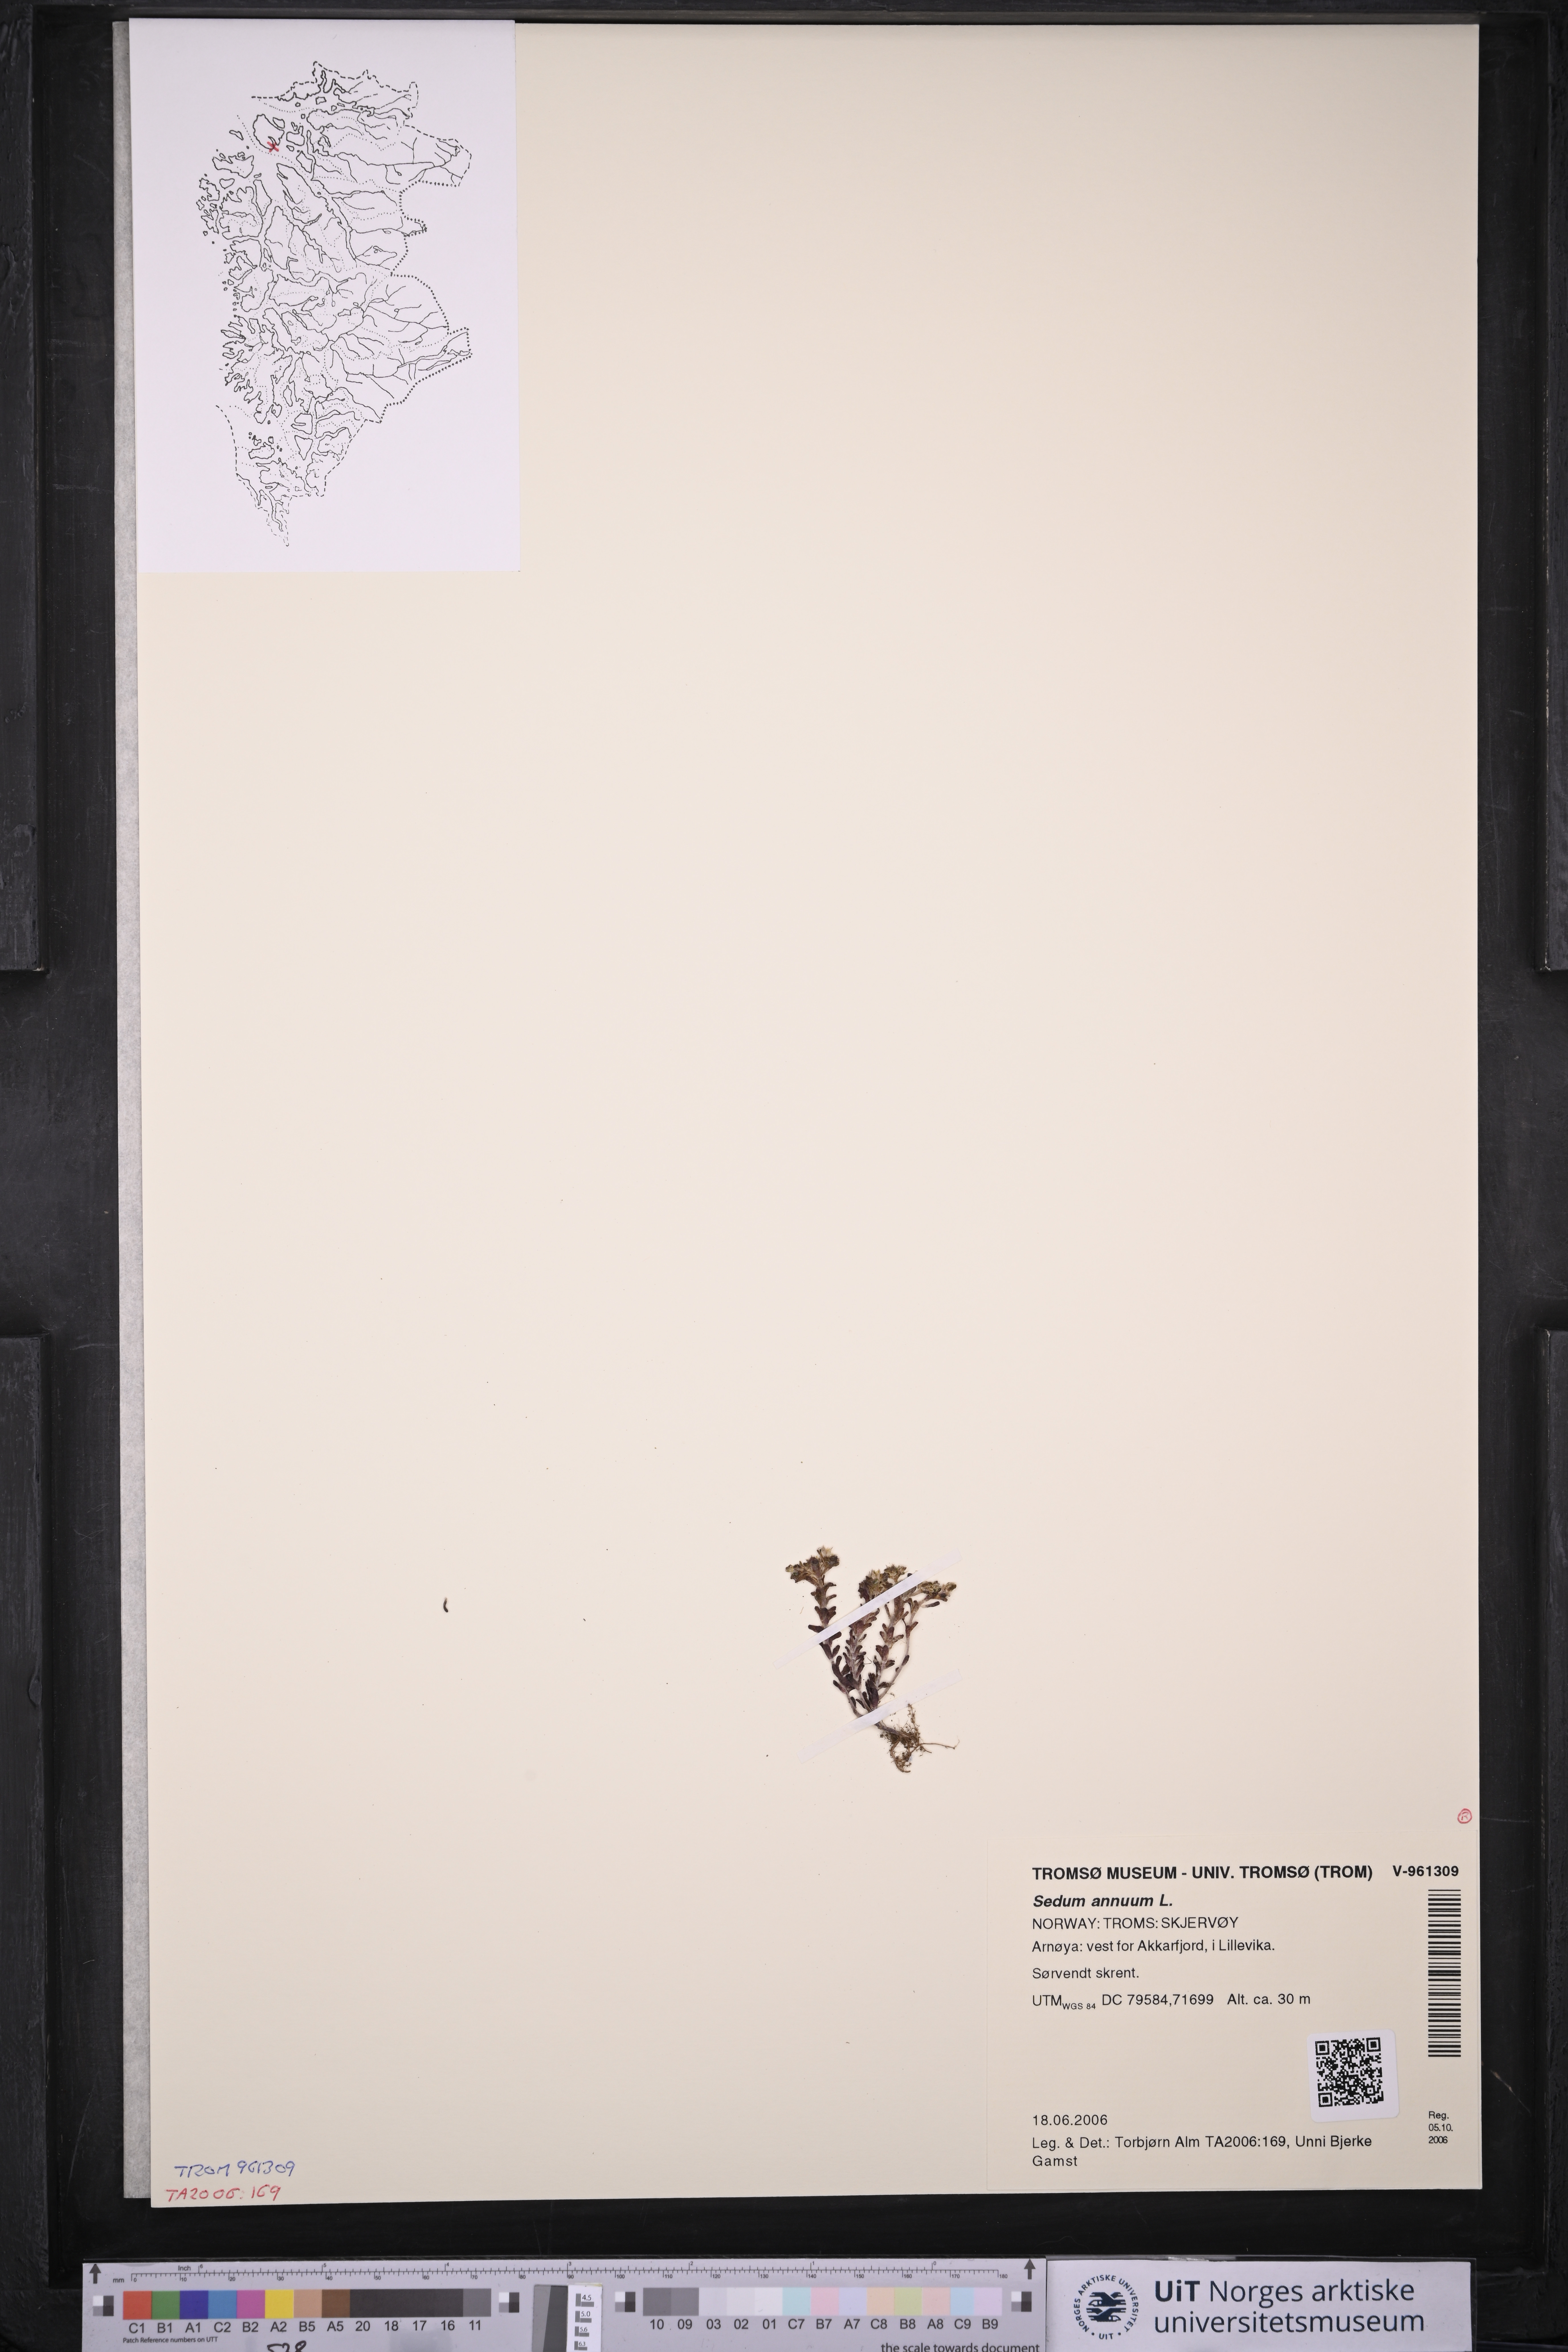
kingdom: Plantae
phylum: Tracheophyta
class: Magnoliopsida
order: Saxifragales
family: Crassulaceae
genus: Sedum
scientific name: Sedum annuum
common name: Annual stonecrop
